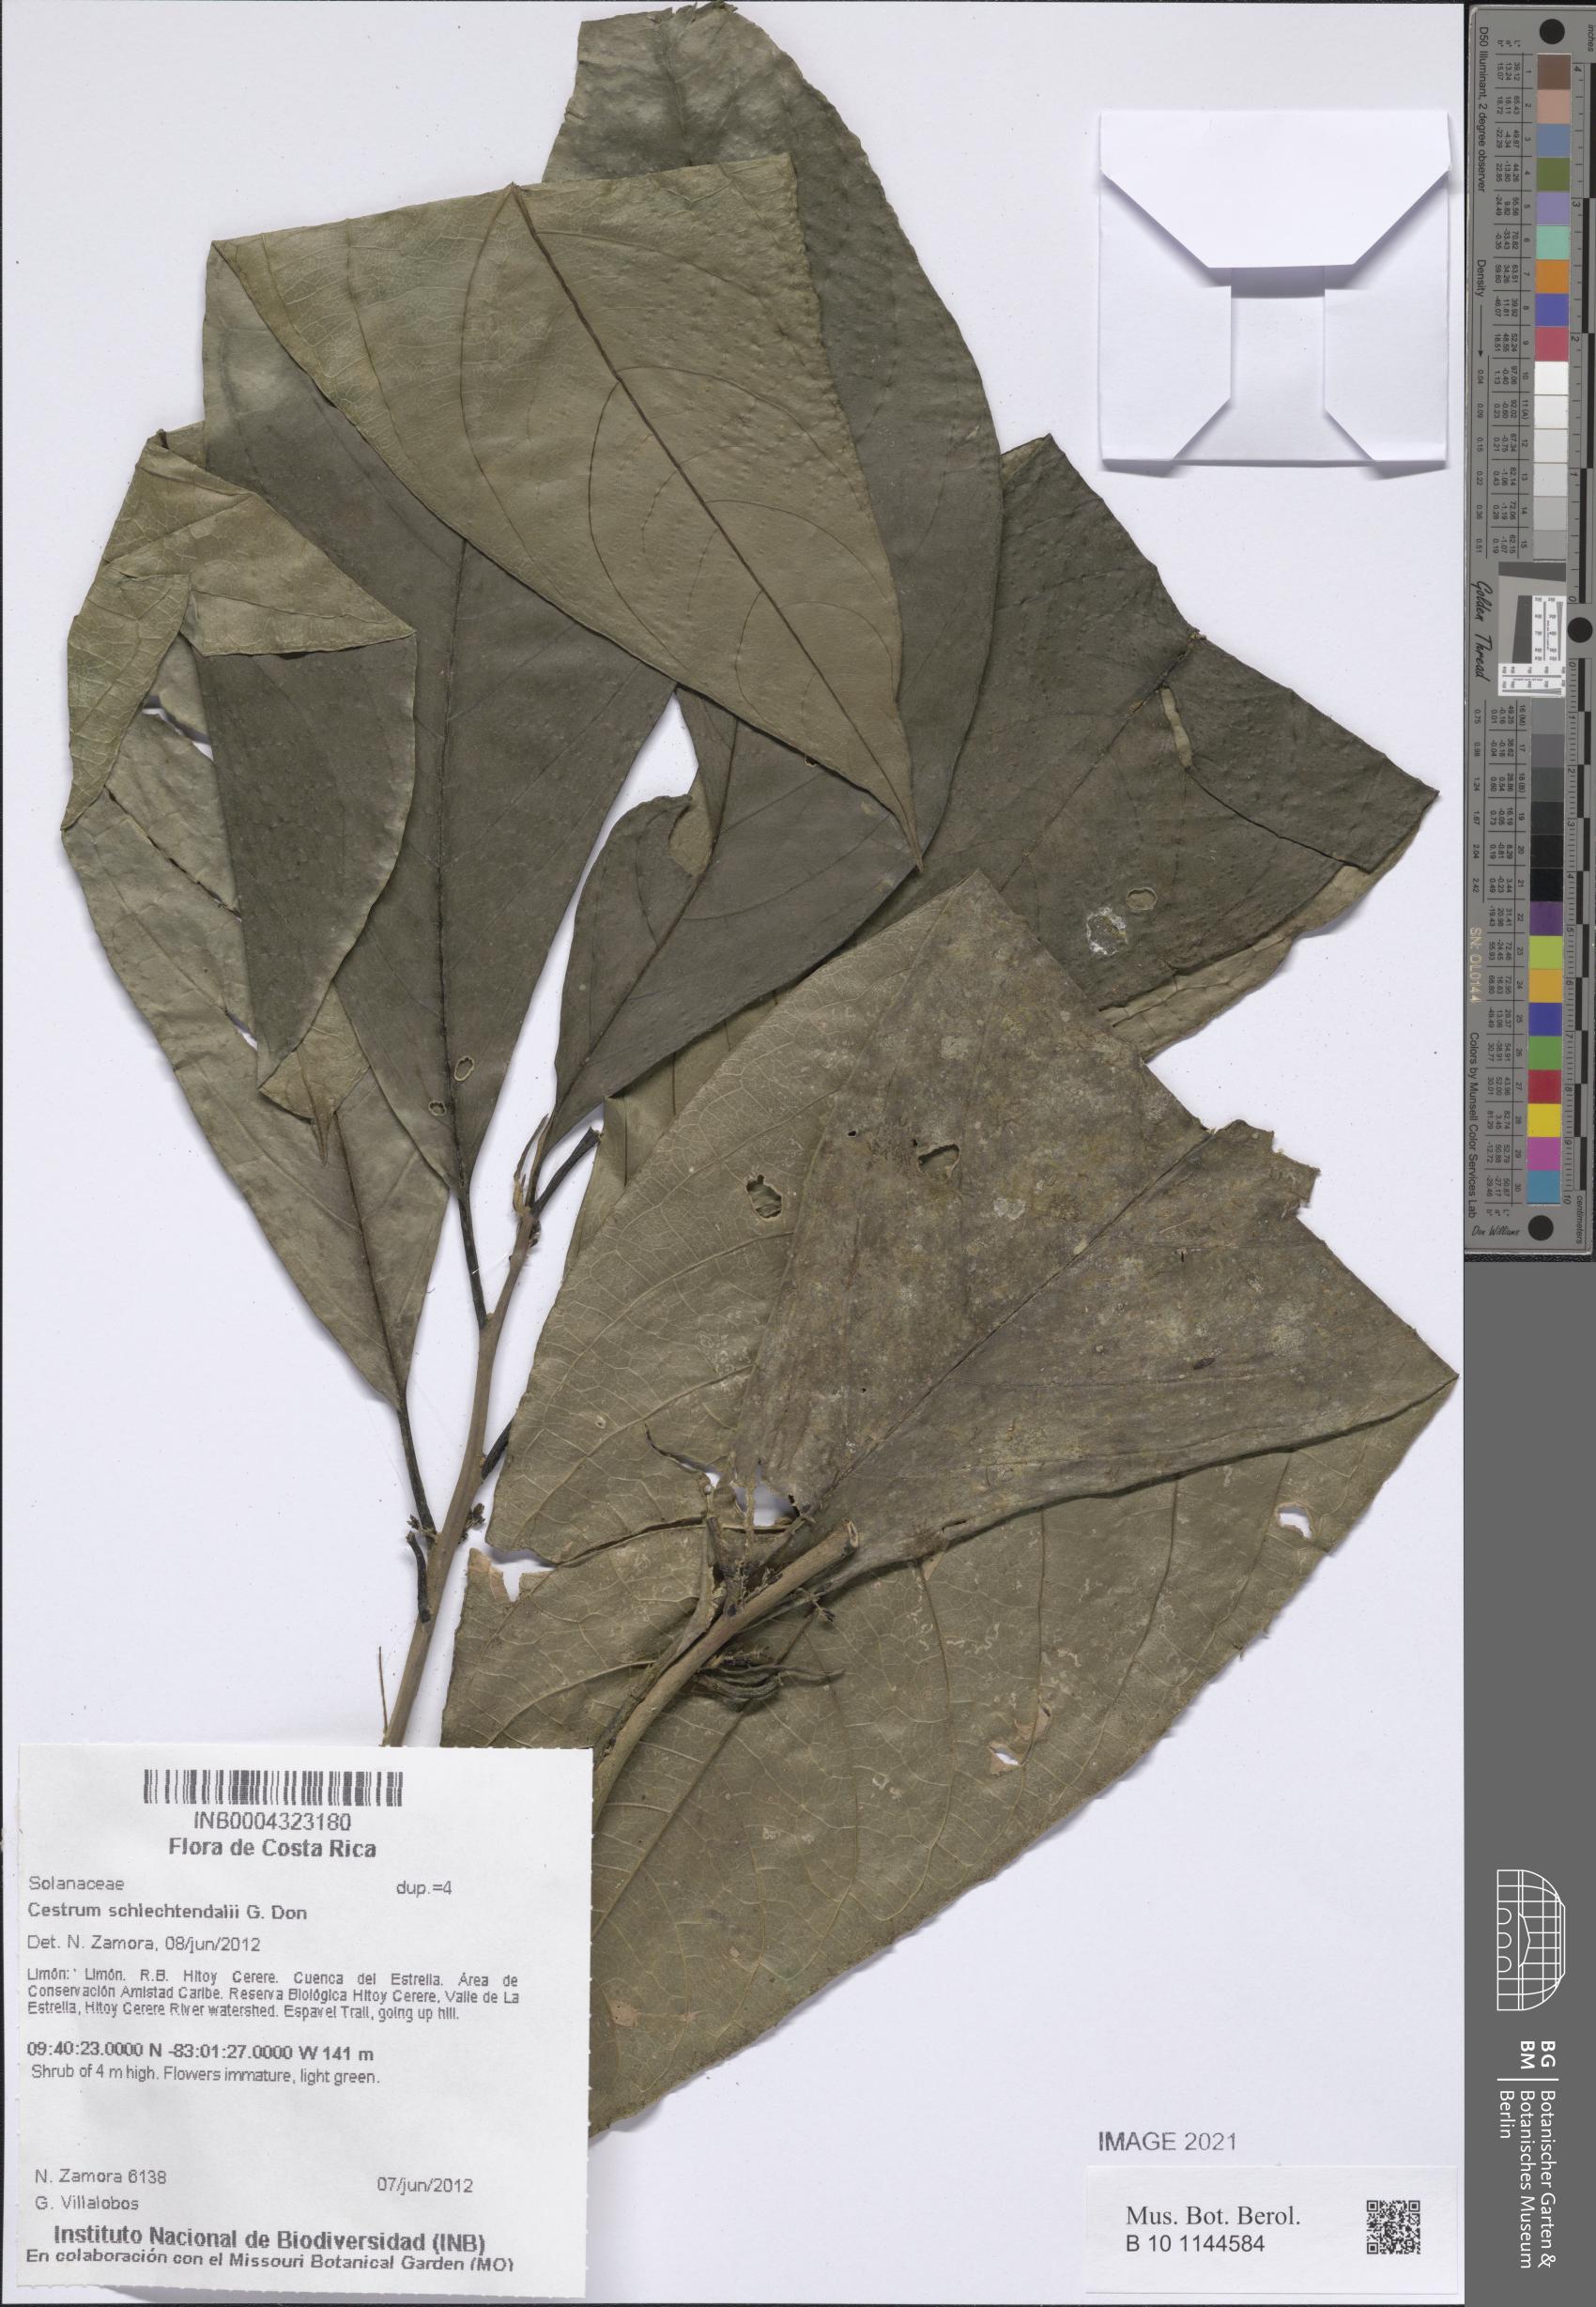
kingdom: Plantae
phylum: Tracheophyta
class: Magnoliopsida
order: Solanales
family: Solanaceae
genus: Cestrum
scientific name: Cestrum schlechtendalii
